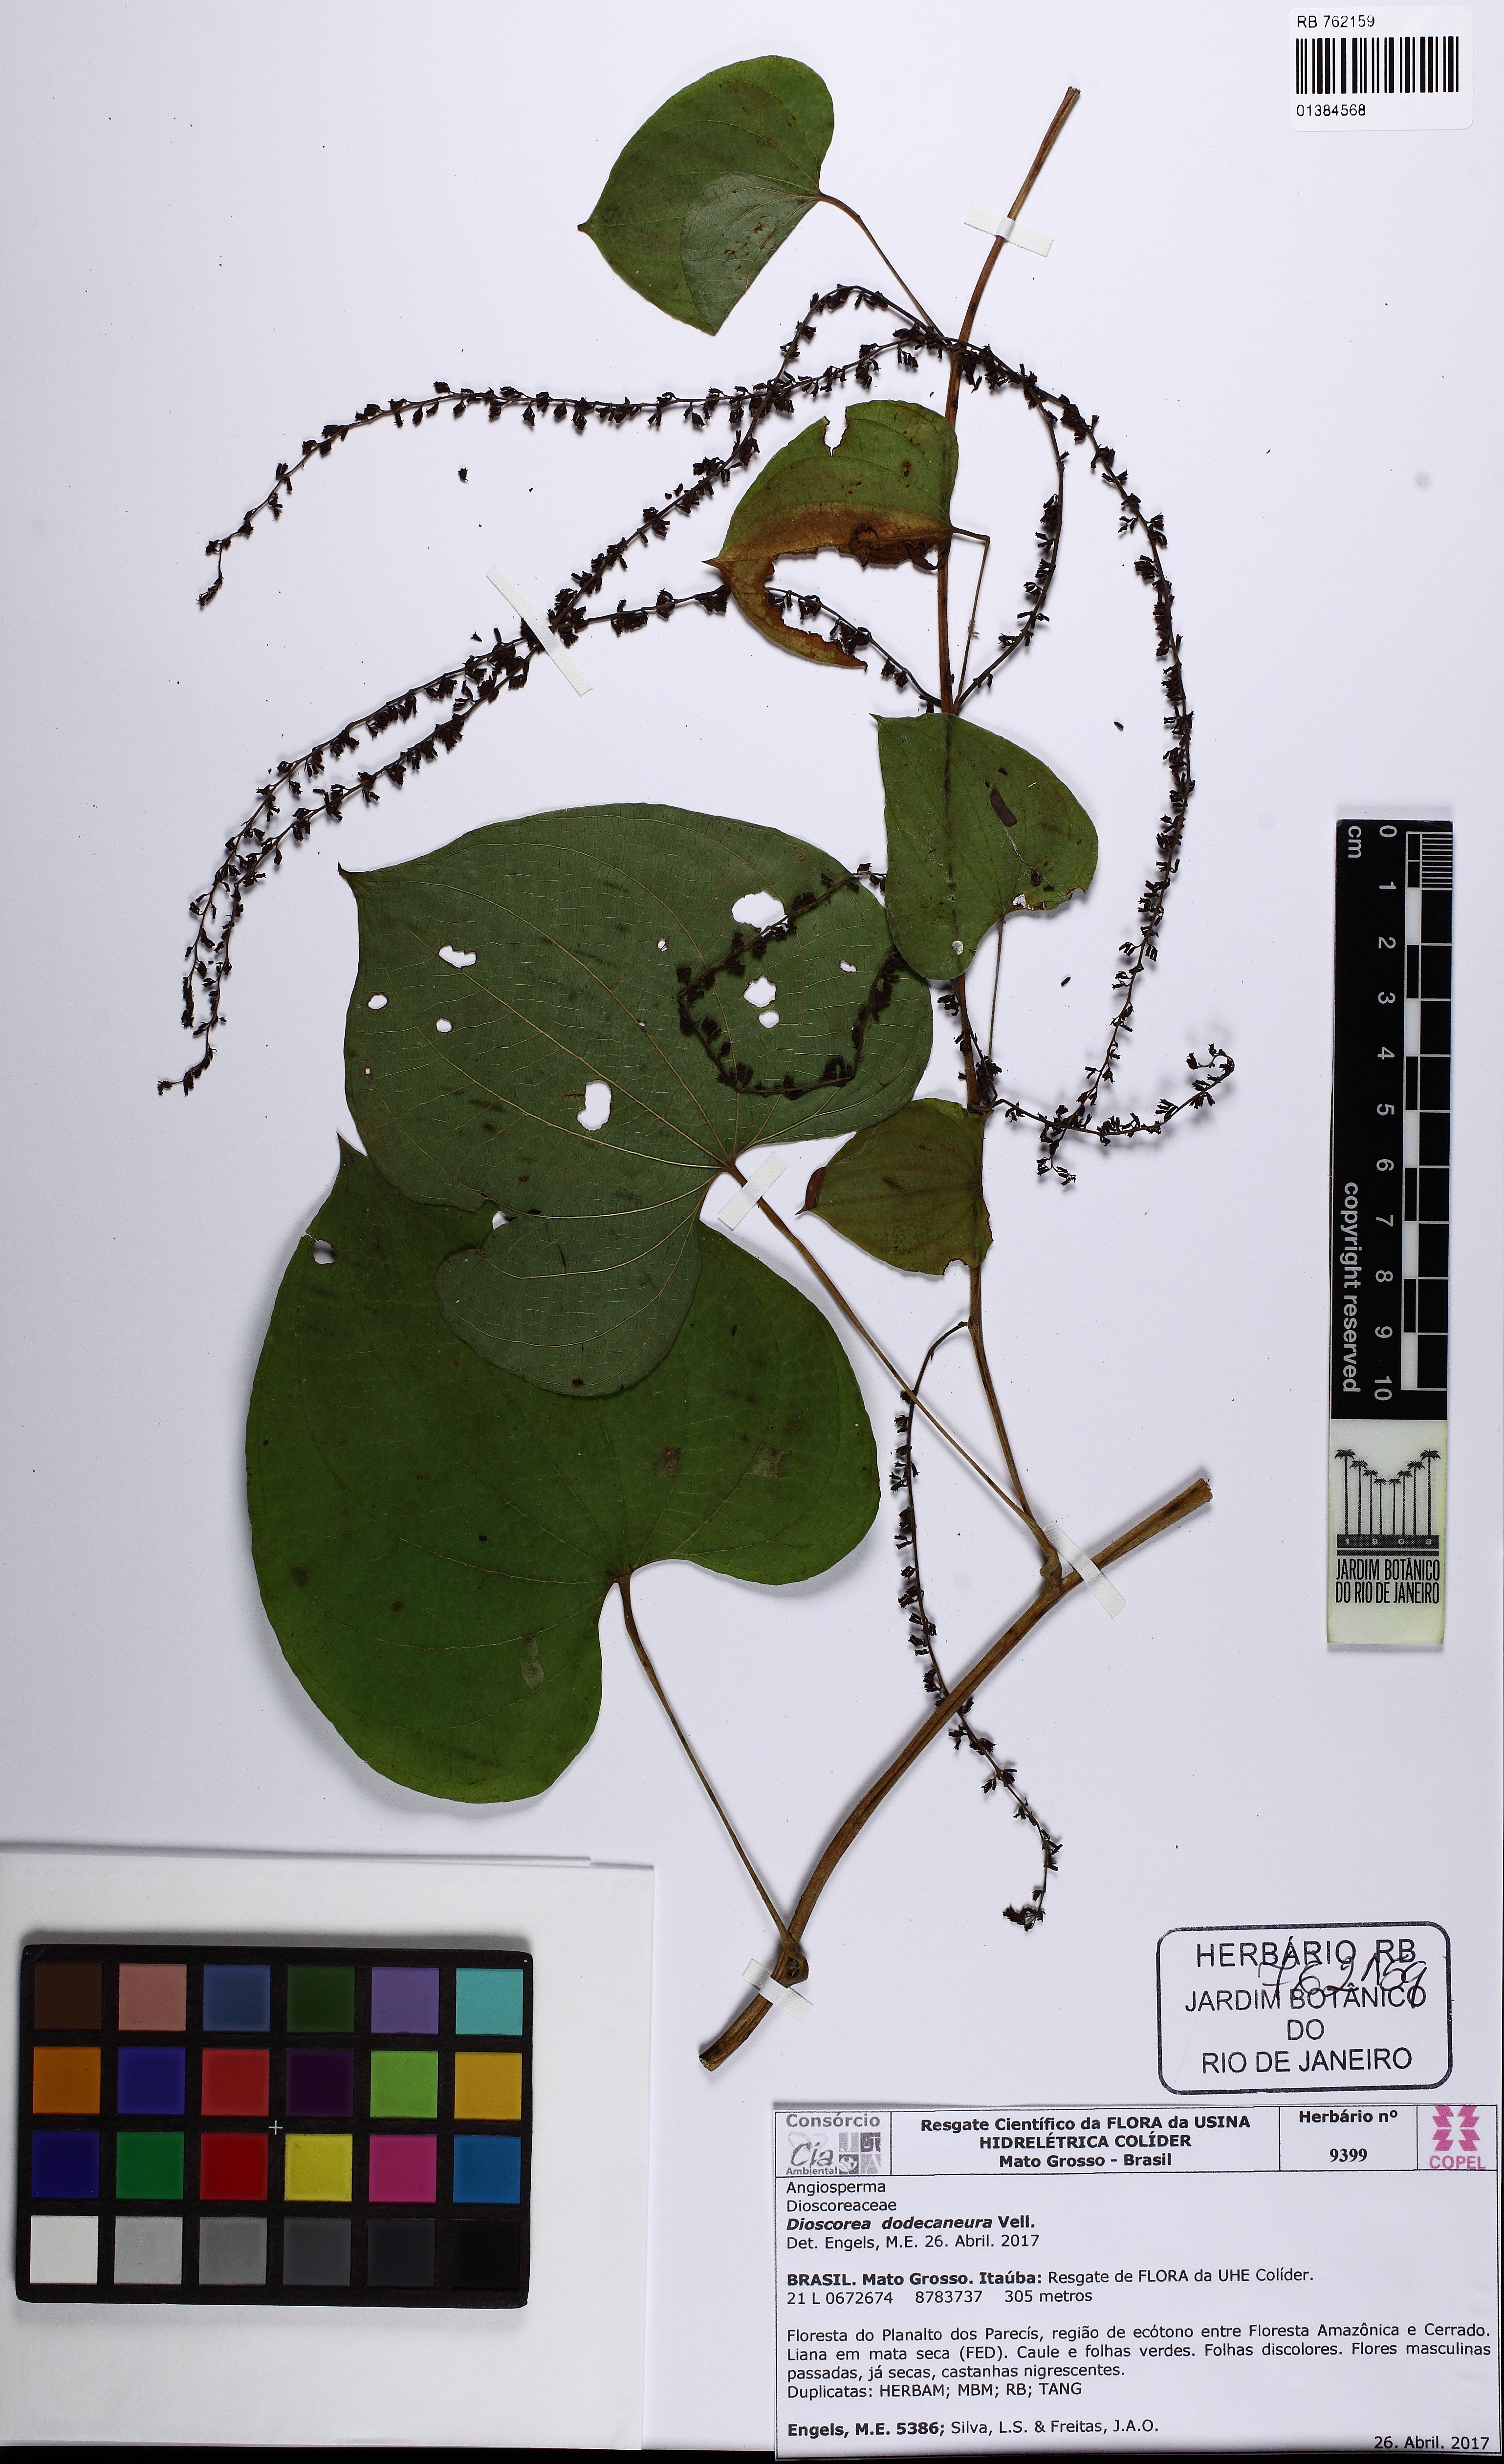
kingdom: Plantae
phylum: Tracheophyta
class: Liliopsida
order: Dioscoreales
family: Dioscoreaceae
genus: Dioscorea
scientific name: Dioscorea dodecaneura
